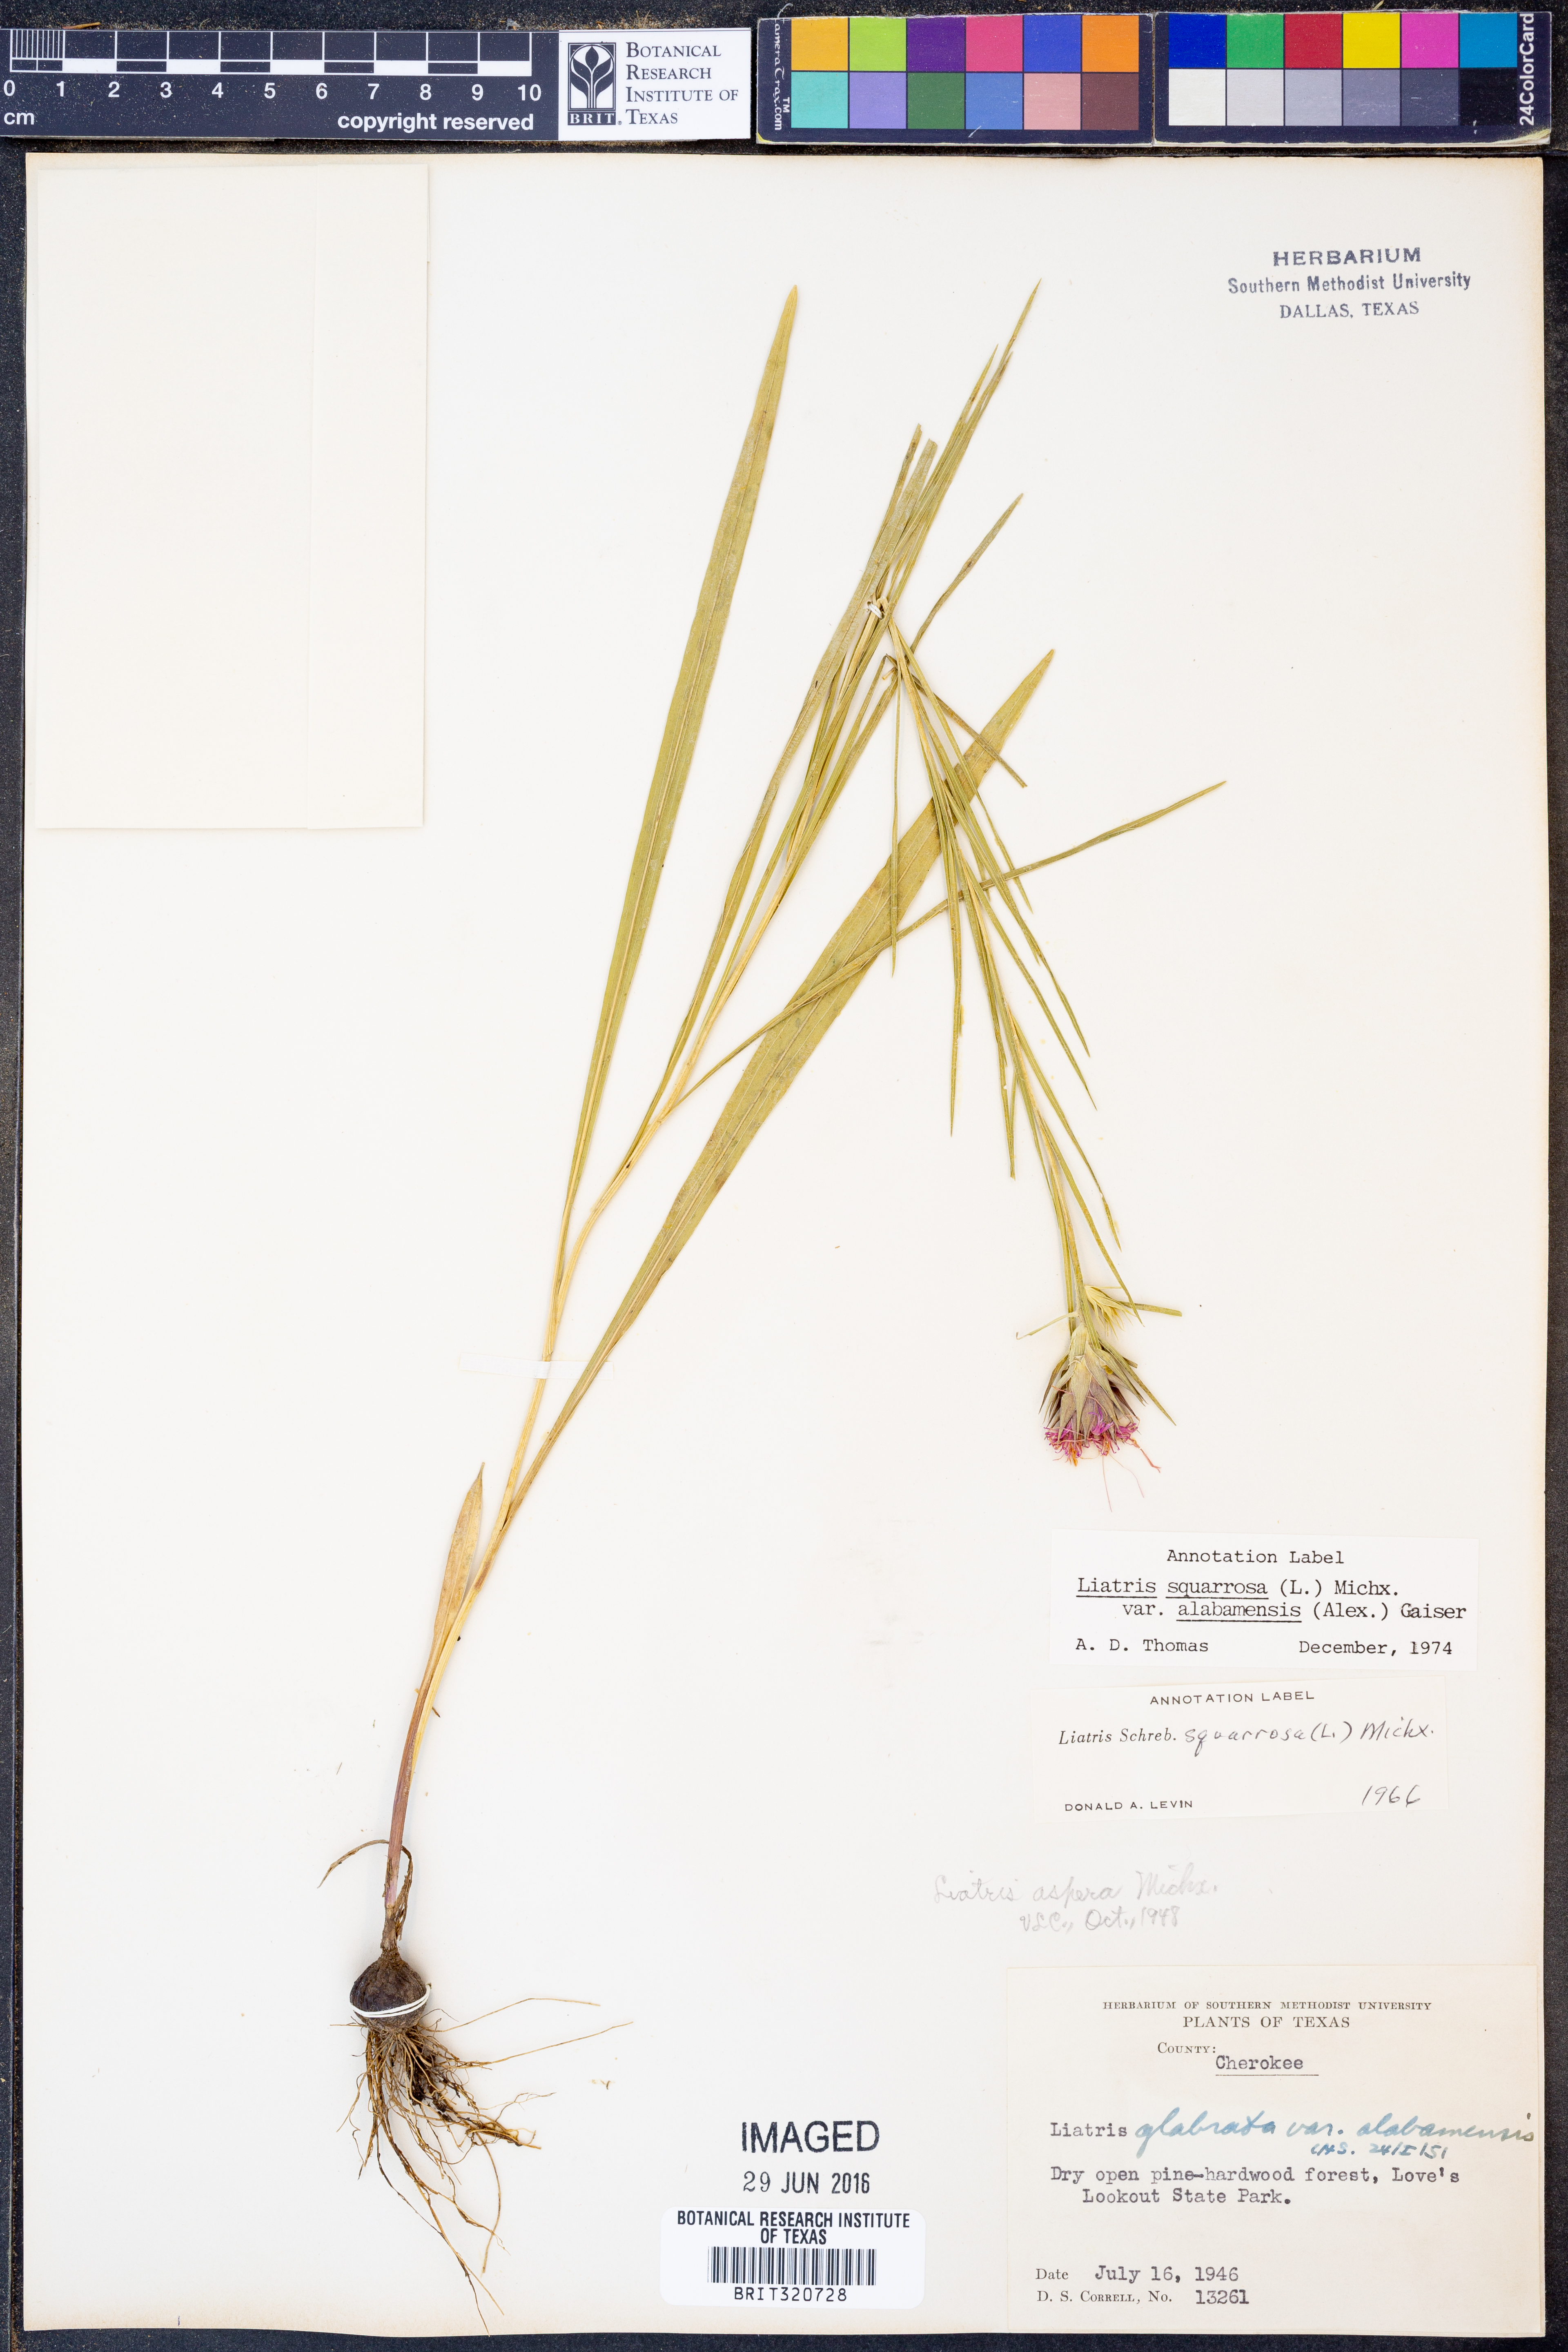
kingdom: Plantae
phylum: Tracheophyta
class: Magnoliopsida
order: Asterales
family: Asteraceae
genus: Liatris
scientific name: Liatris squarrosa
